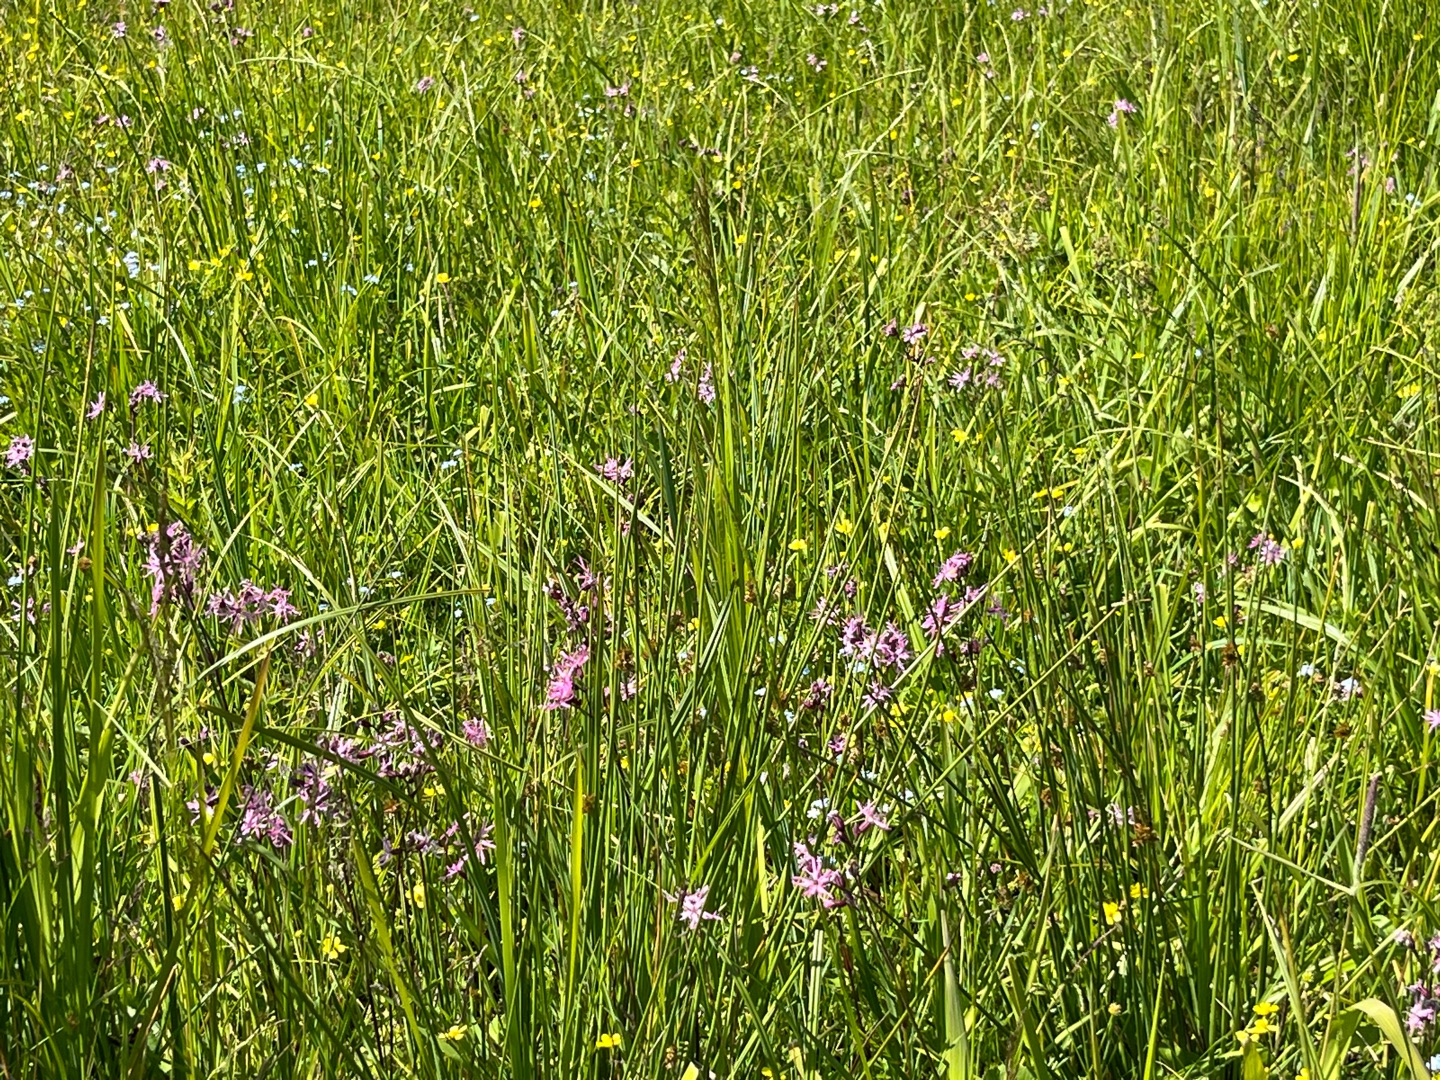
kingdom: Plantae
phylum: Tracheophyta
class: Magnoliopsida
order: Caryophyllales
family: Caryophyllaceae
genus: Silene
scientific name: Silene flos-cuculi
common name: Trævlekrone
